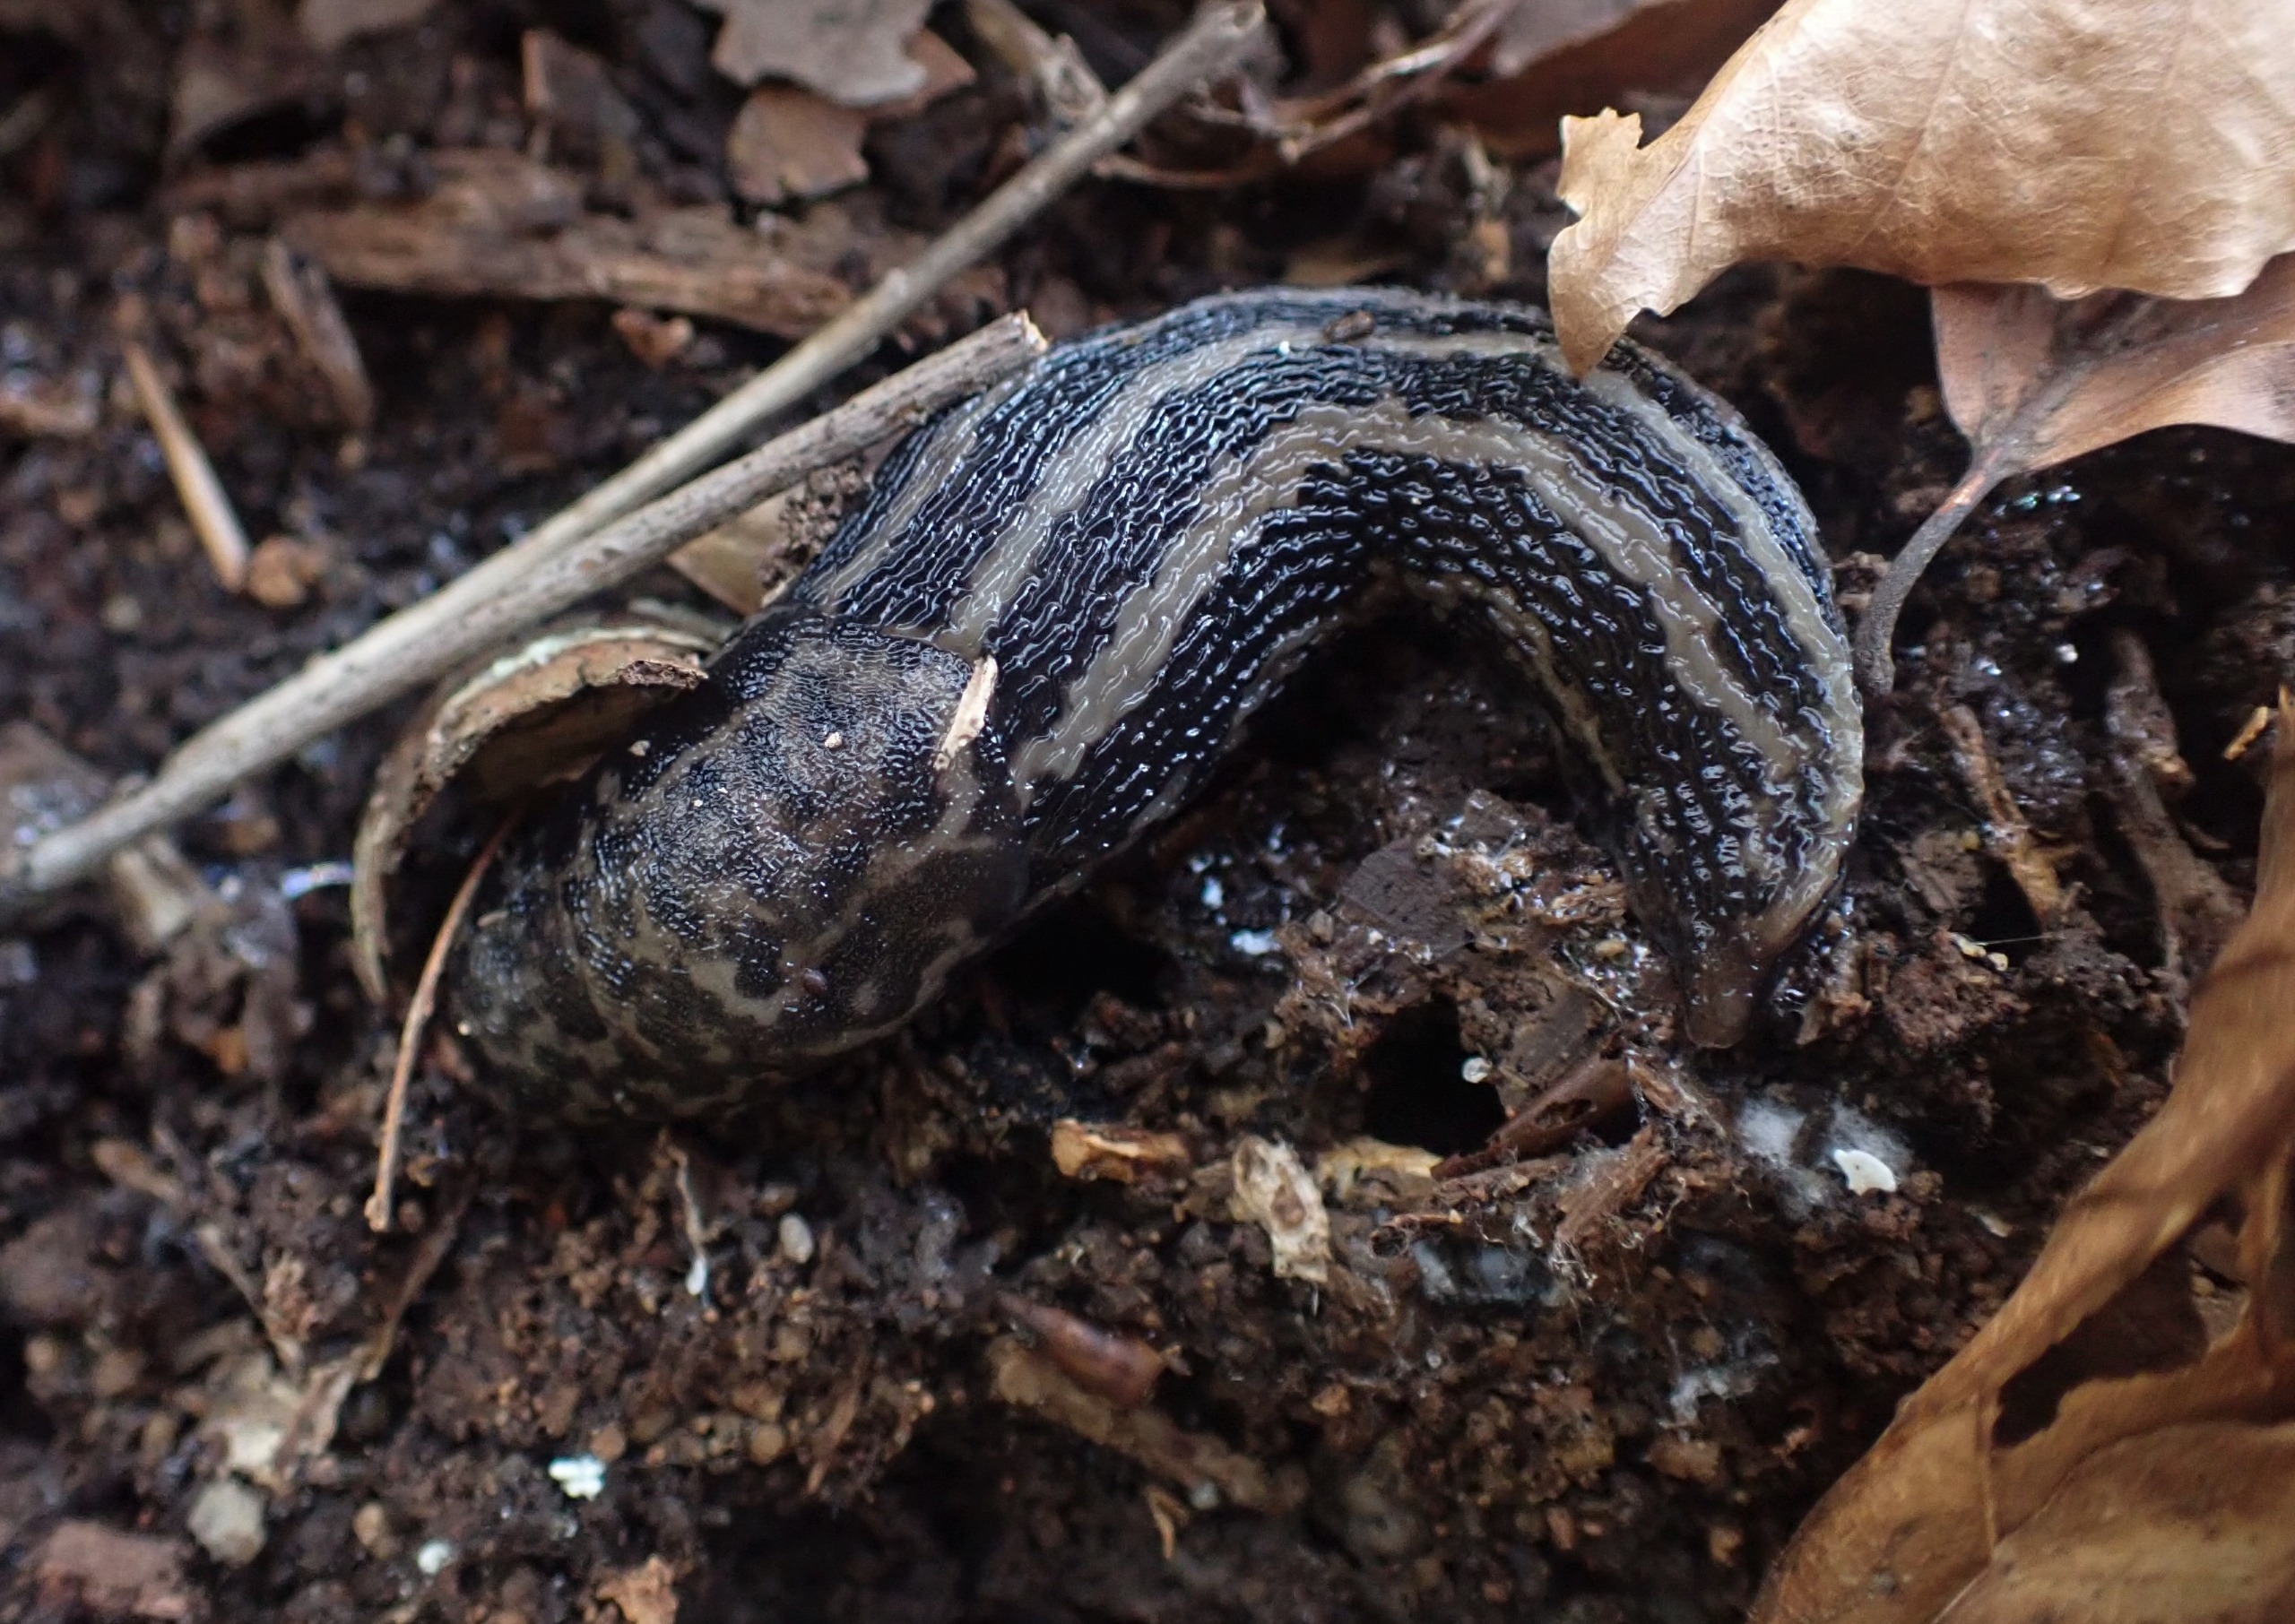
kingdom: Animalia
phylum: Mollusca
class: Gastropoda
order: Stylommatophora
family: Limacidae
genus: Limax
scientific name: Limax maximus
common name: Pantersnegl
